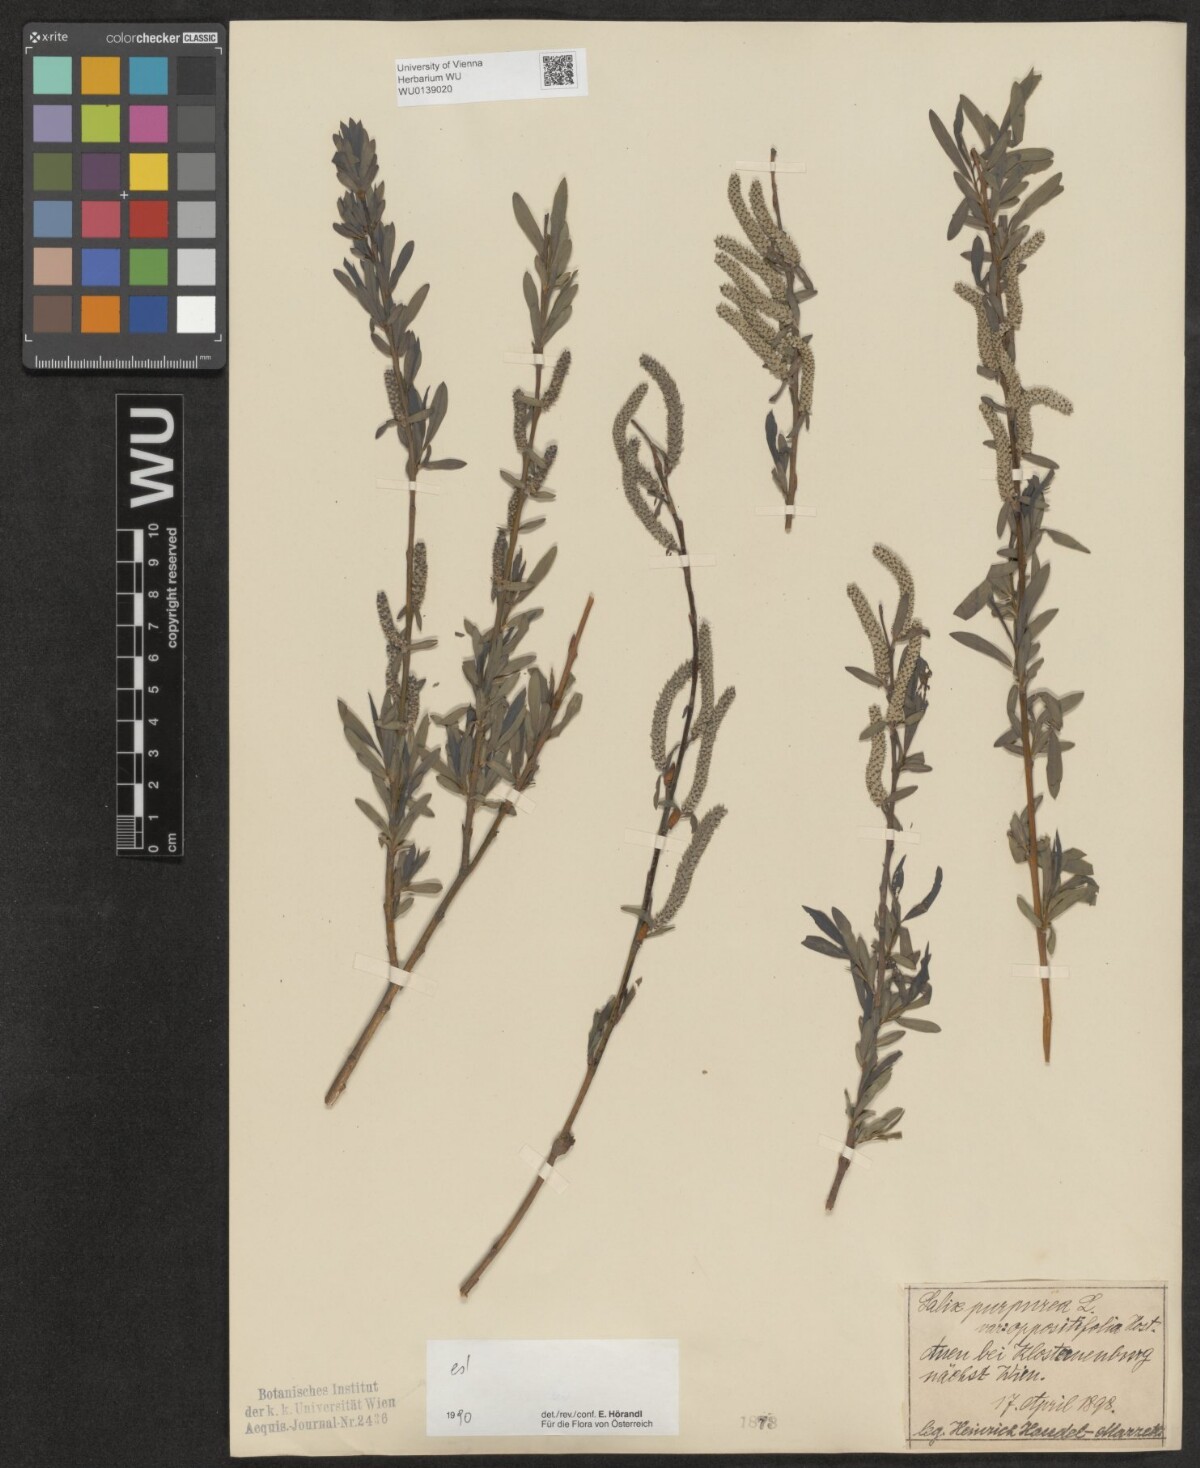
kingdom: Plantae
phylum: Tracheophyta
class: Magnoliopsida
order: Malpighiales
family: Salicaceae
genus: Salix
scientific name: Salix purpurea
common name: Purple willow
